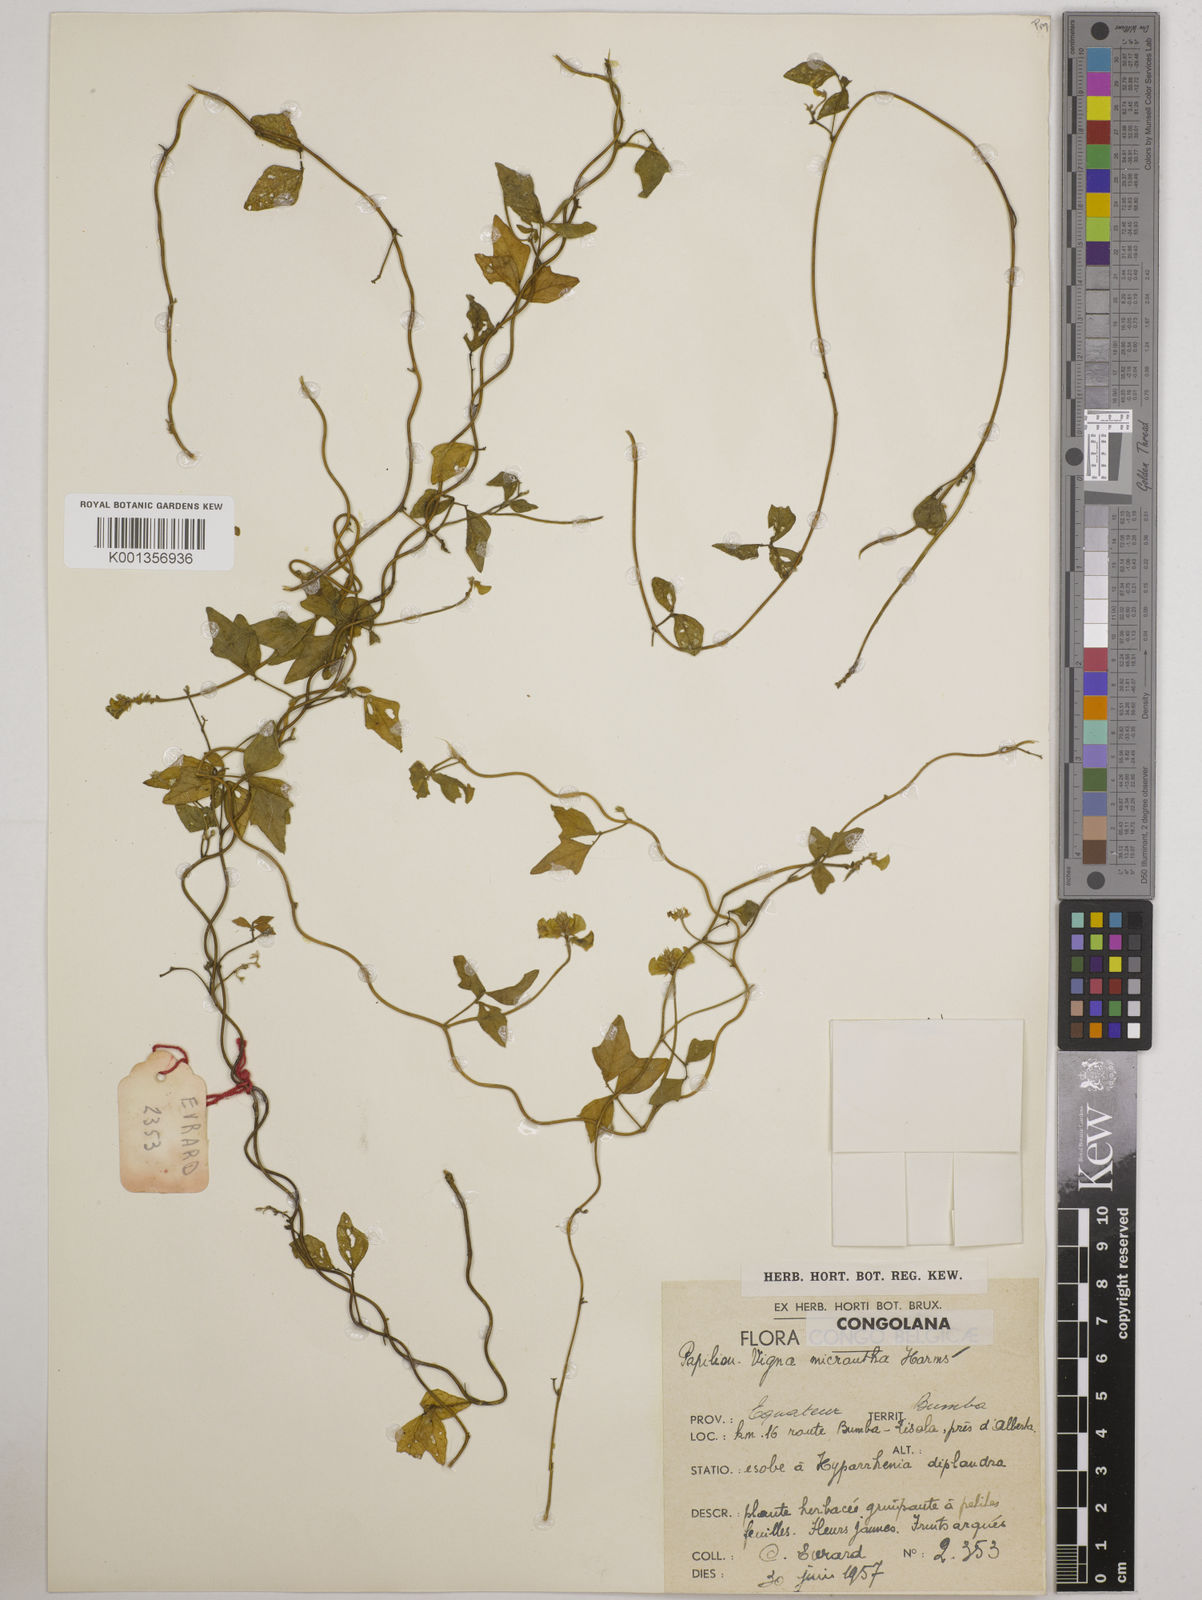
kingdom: Plantae
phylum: Tracheophyta
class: Magnoliopsida
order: Fabales
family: Fabaceae
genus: Vigna
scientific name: Vigna comosa
